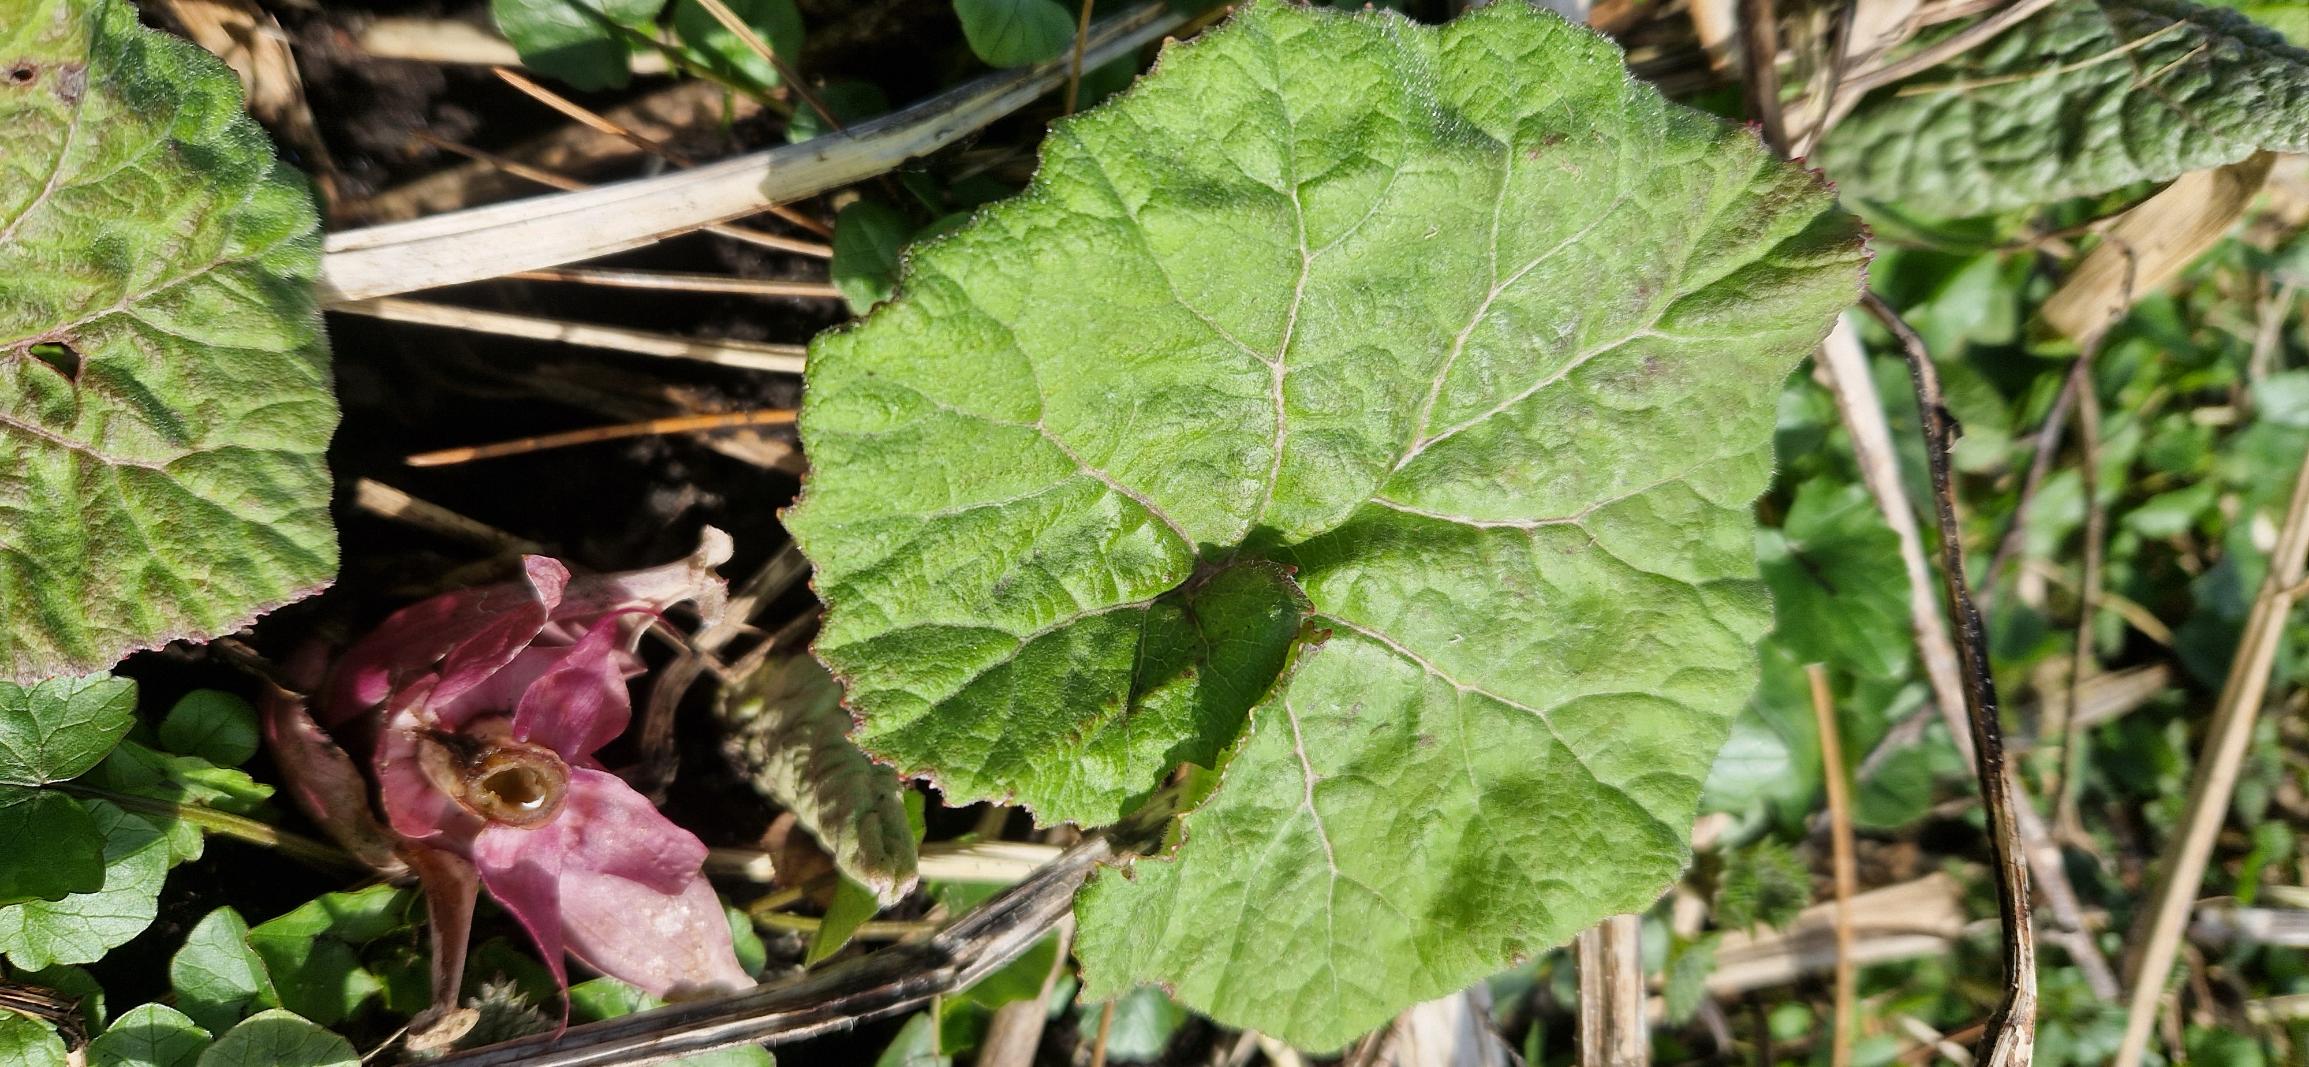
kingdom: Plantae
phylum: Tracheophyta
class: Magnoliopsida
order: Asterales
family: Asteraceae
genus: Petasites
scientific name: Petasites hybridus
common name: Rød hestehov
